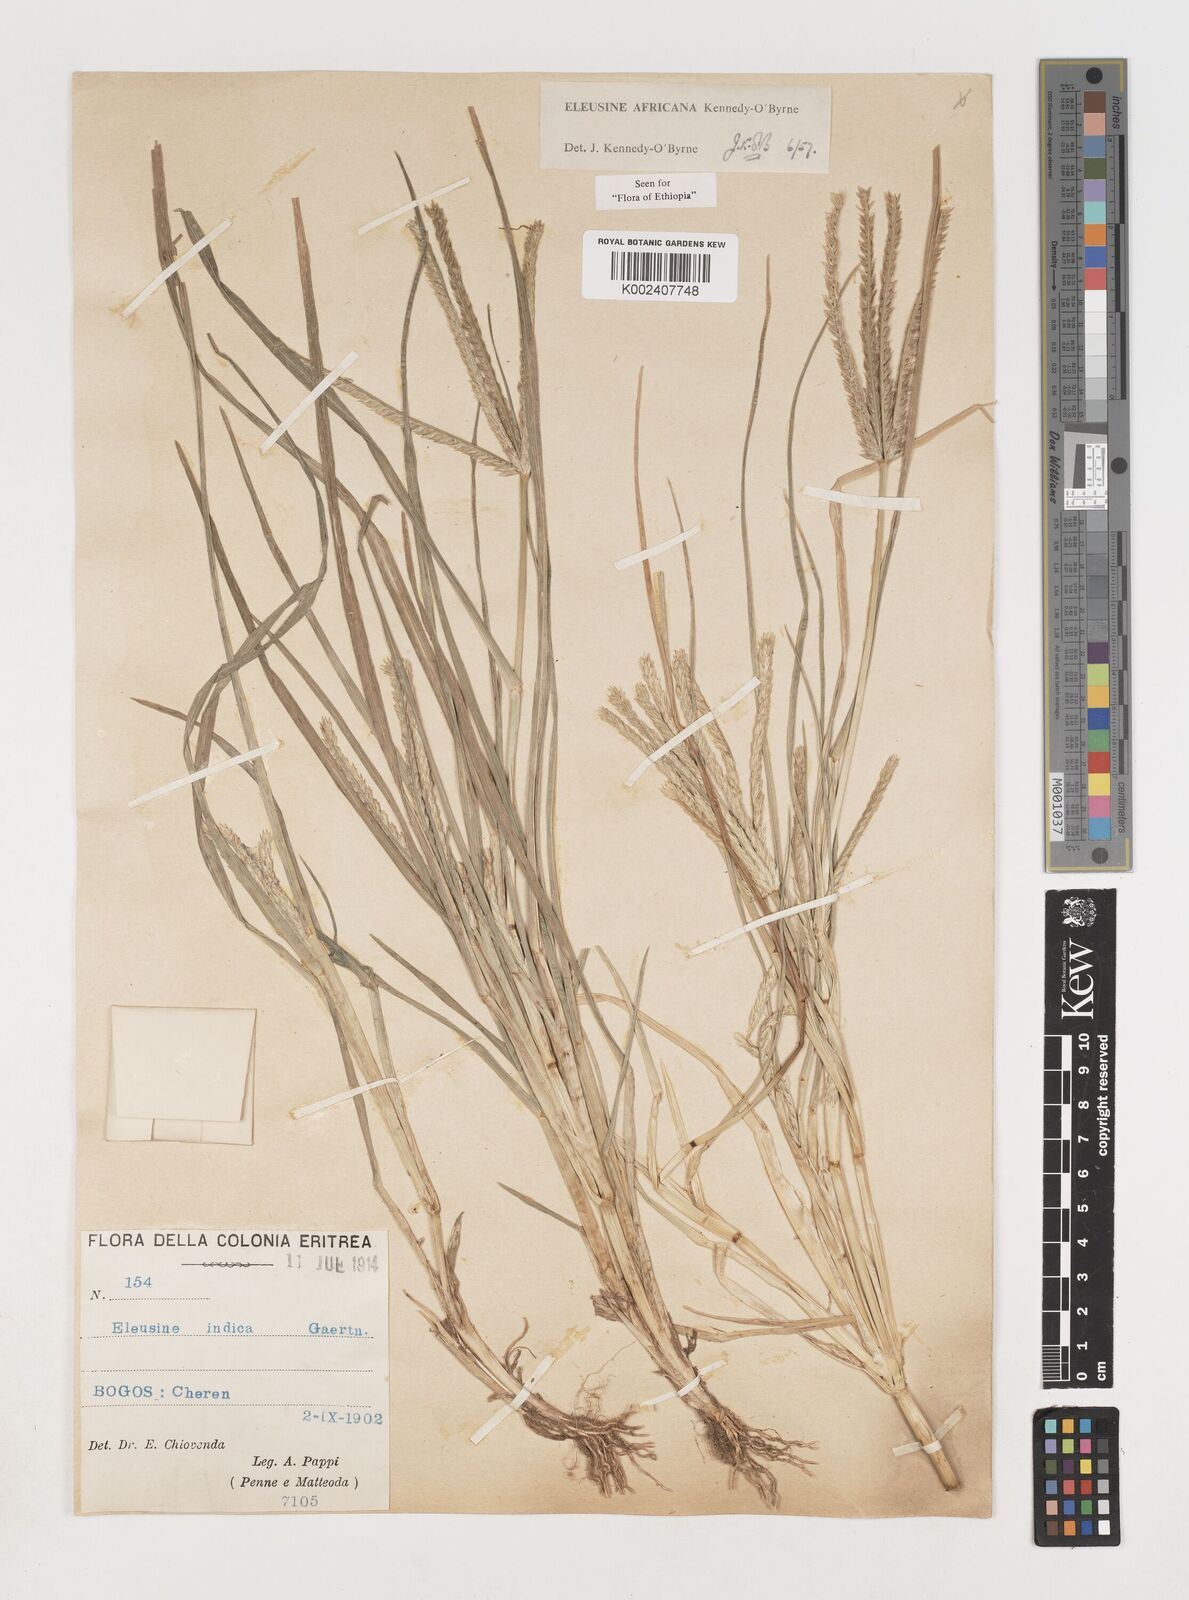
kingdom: Plantae
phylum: Tracheophyta
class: Liliopsida
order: Poales
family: Poaceae
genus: Eleusine
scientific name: Eleusine africana
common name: Wild african finger millet
